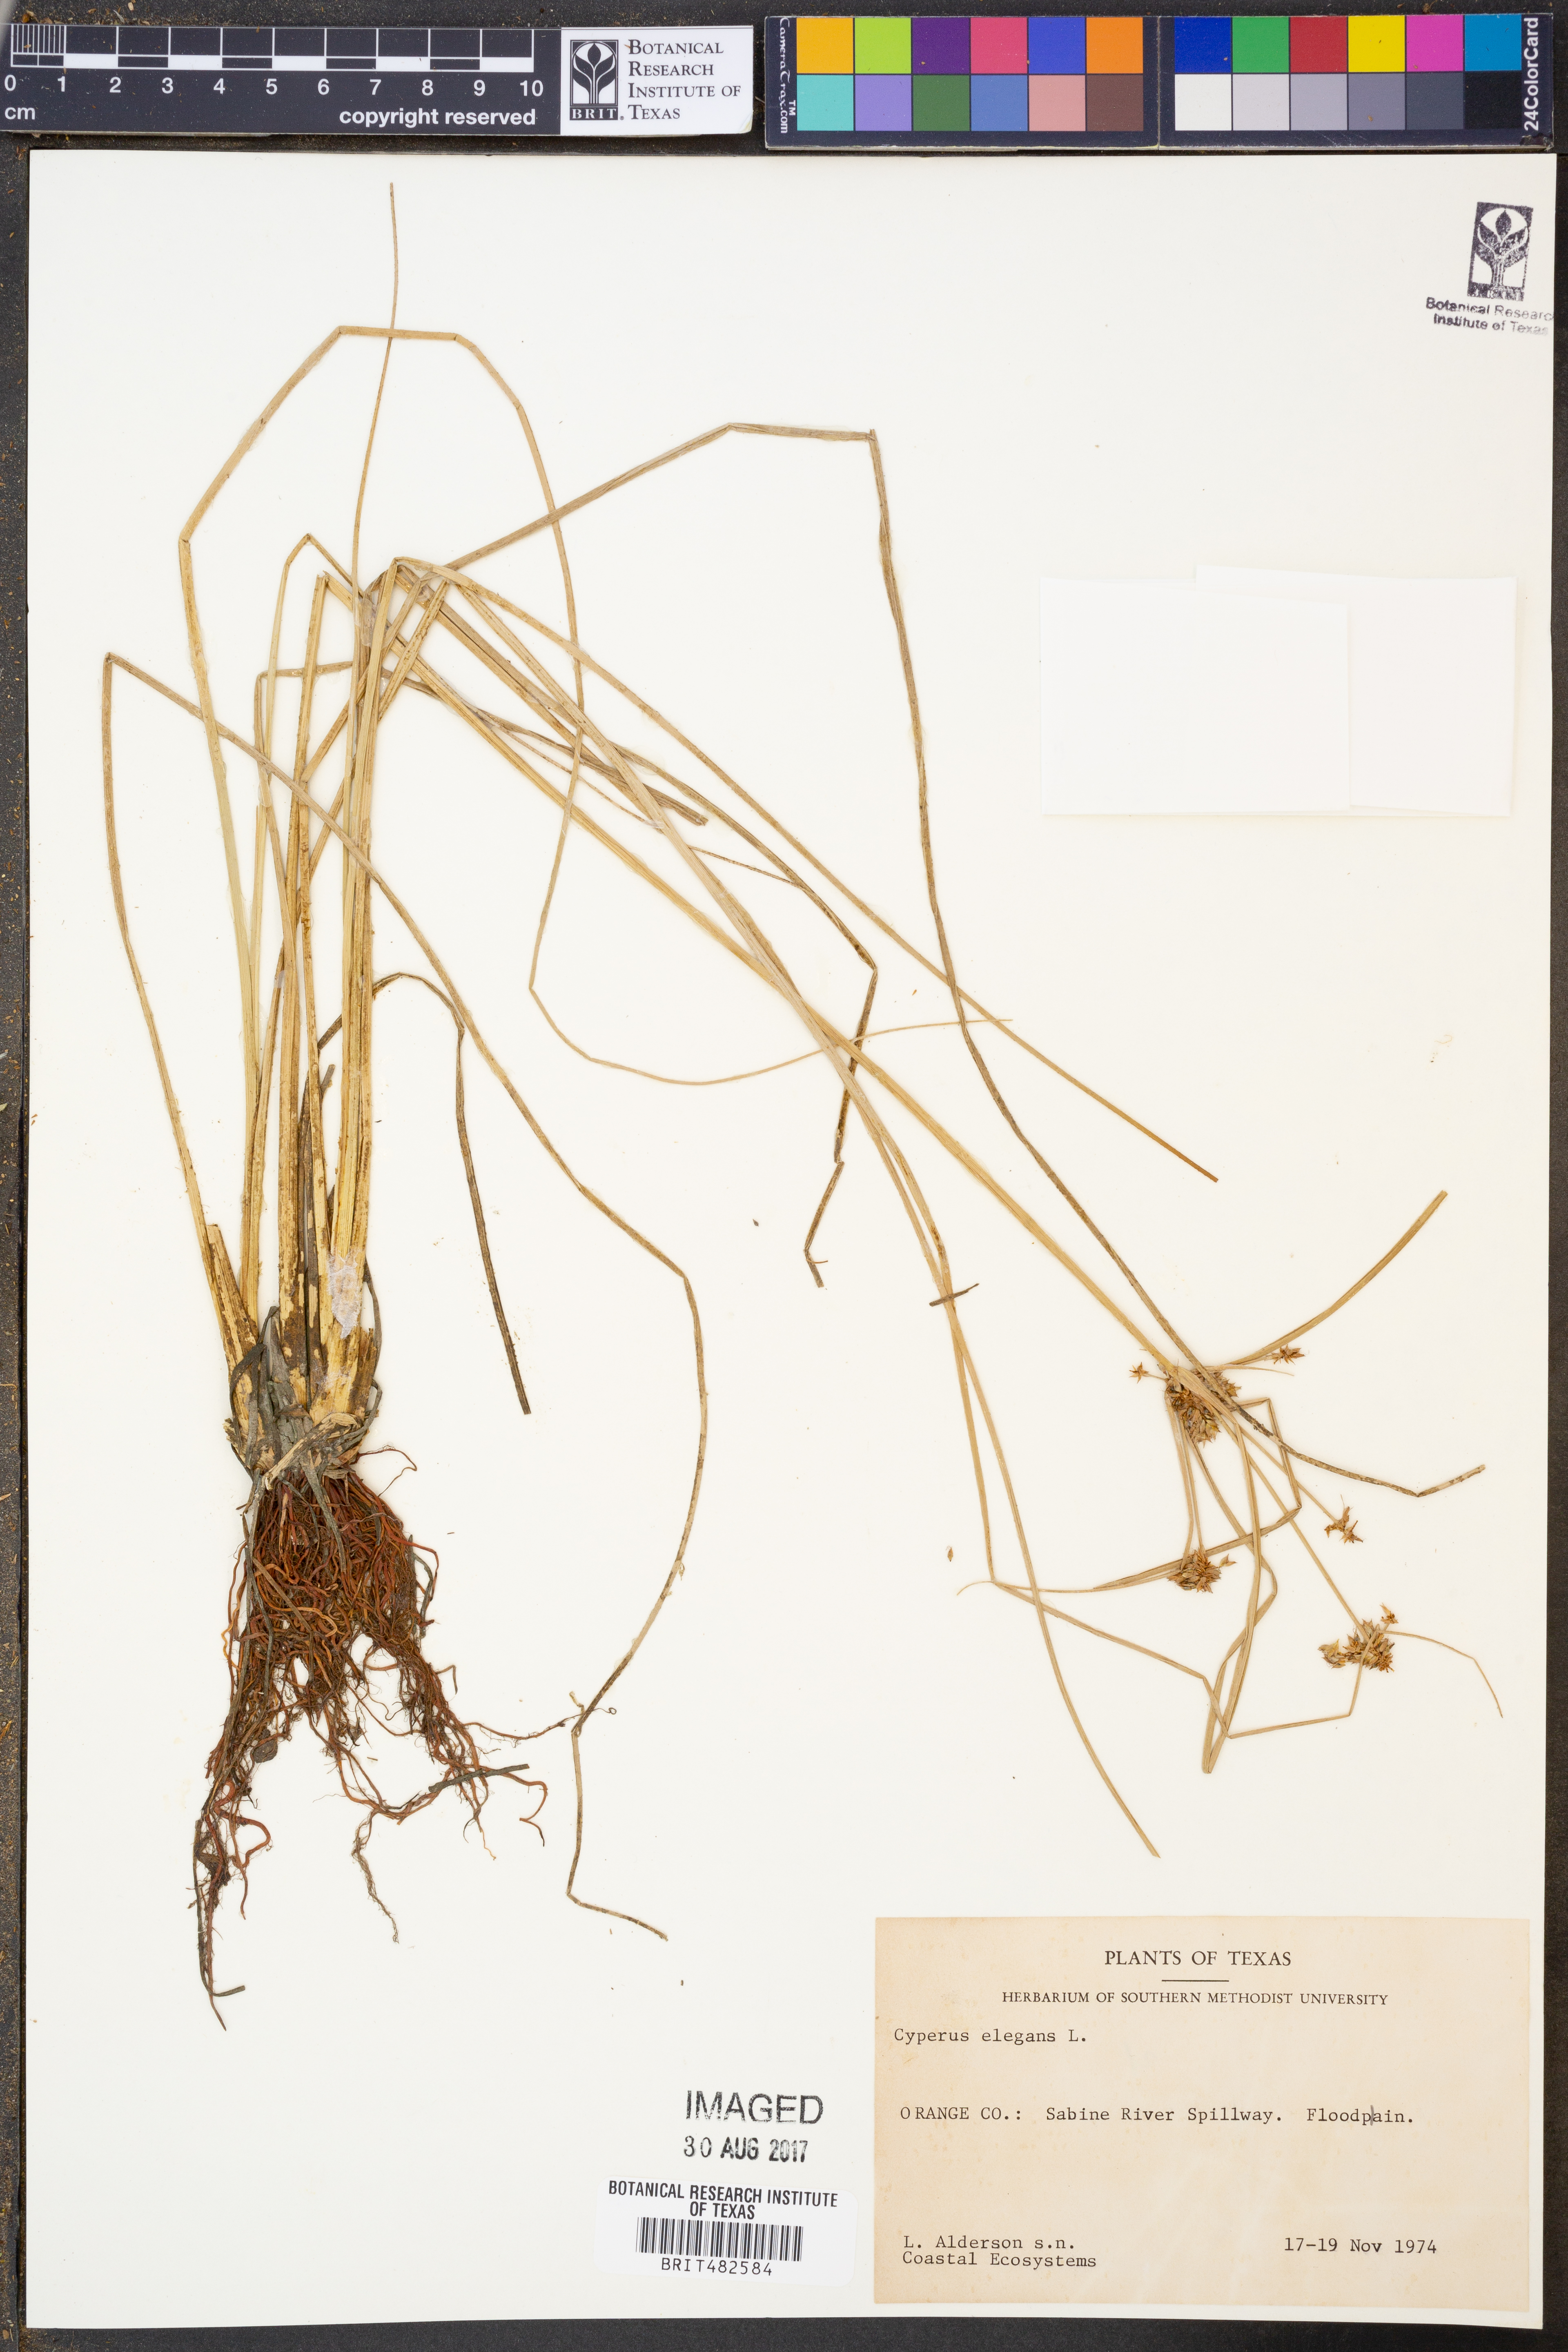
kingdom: Plantae
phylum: Tracheophyta
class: Liliopsida
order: Poales
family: Cyperaceae
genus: Cyperus
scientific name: Cyperus elegans
